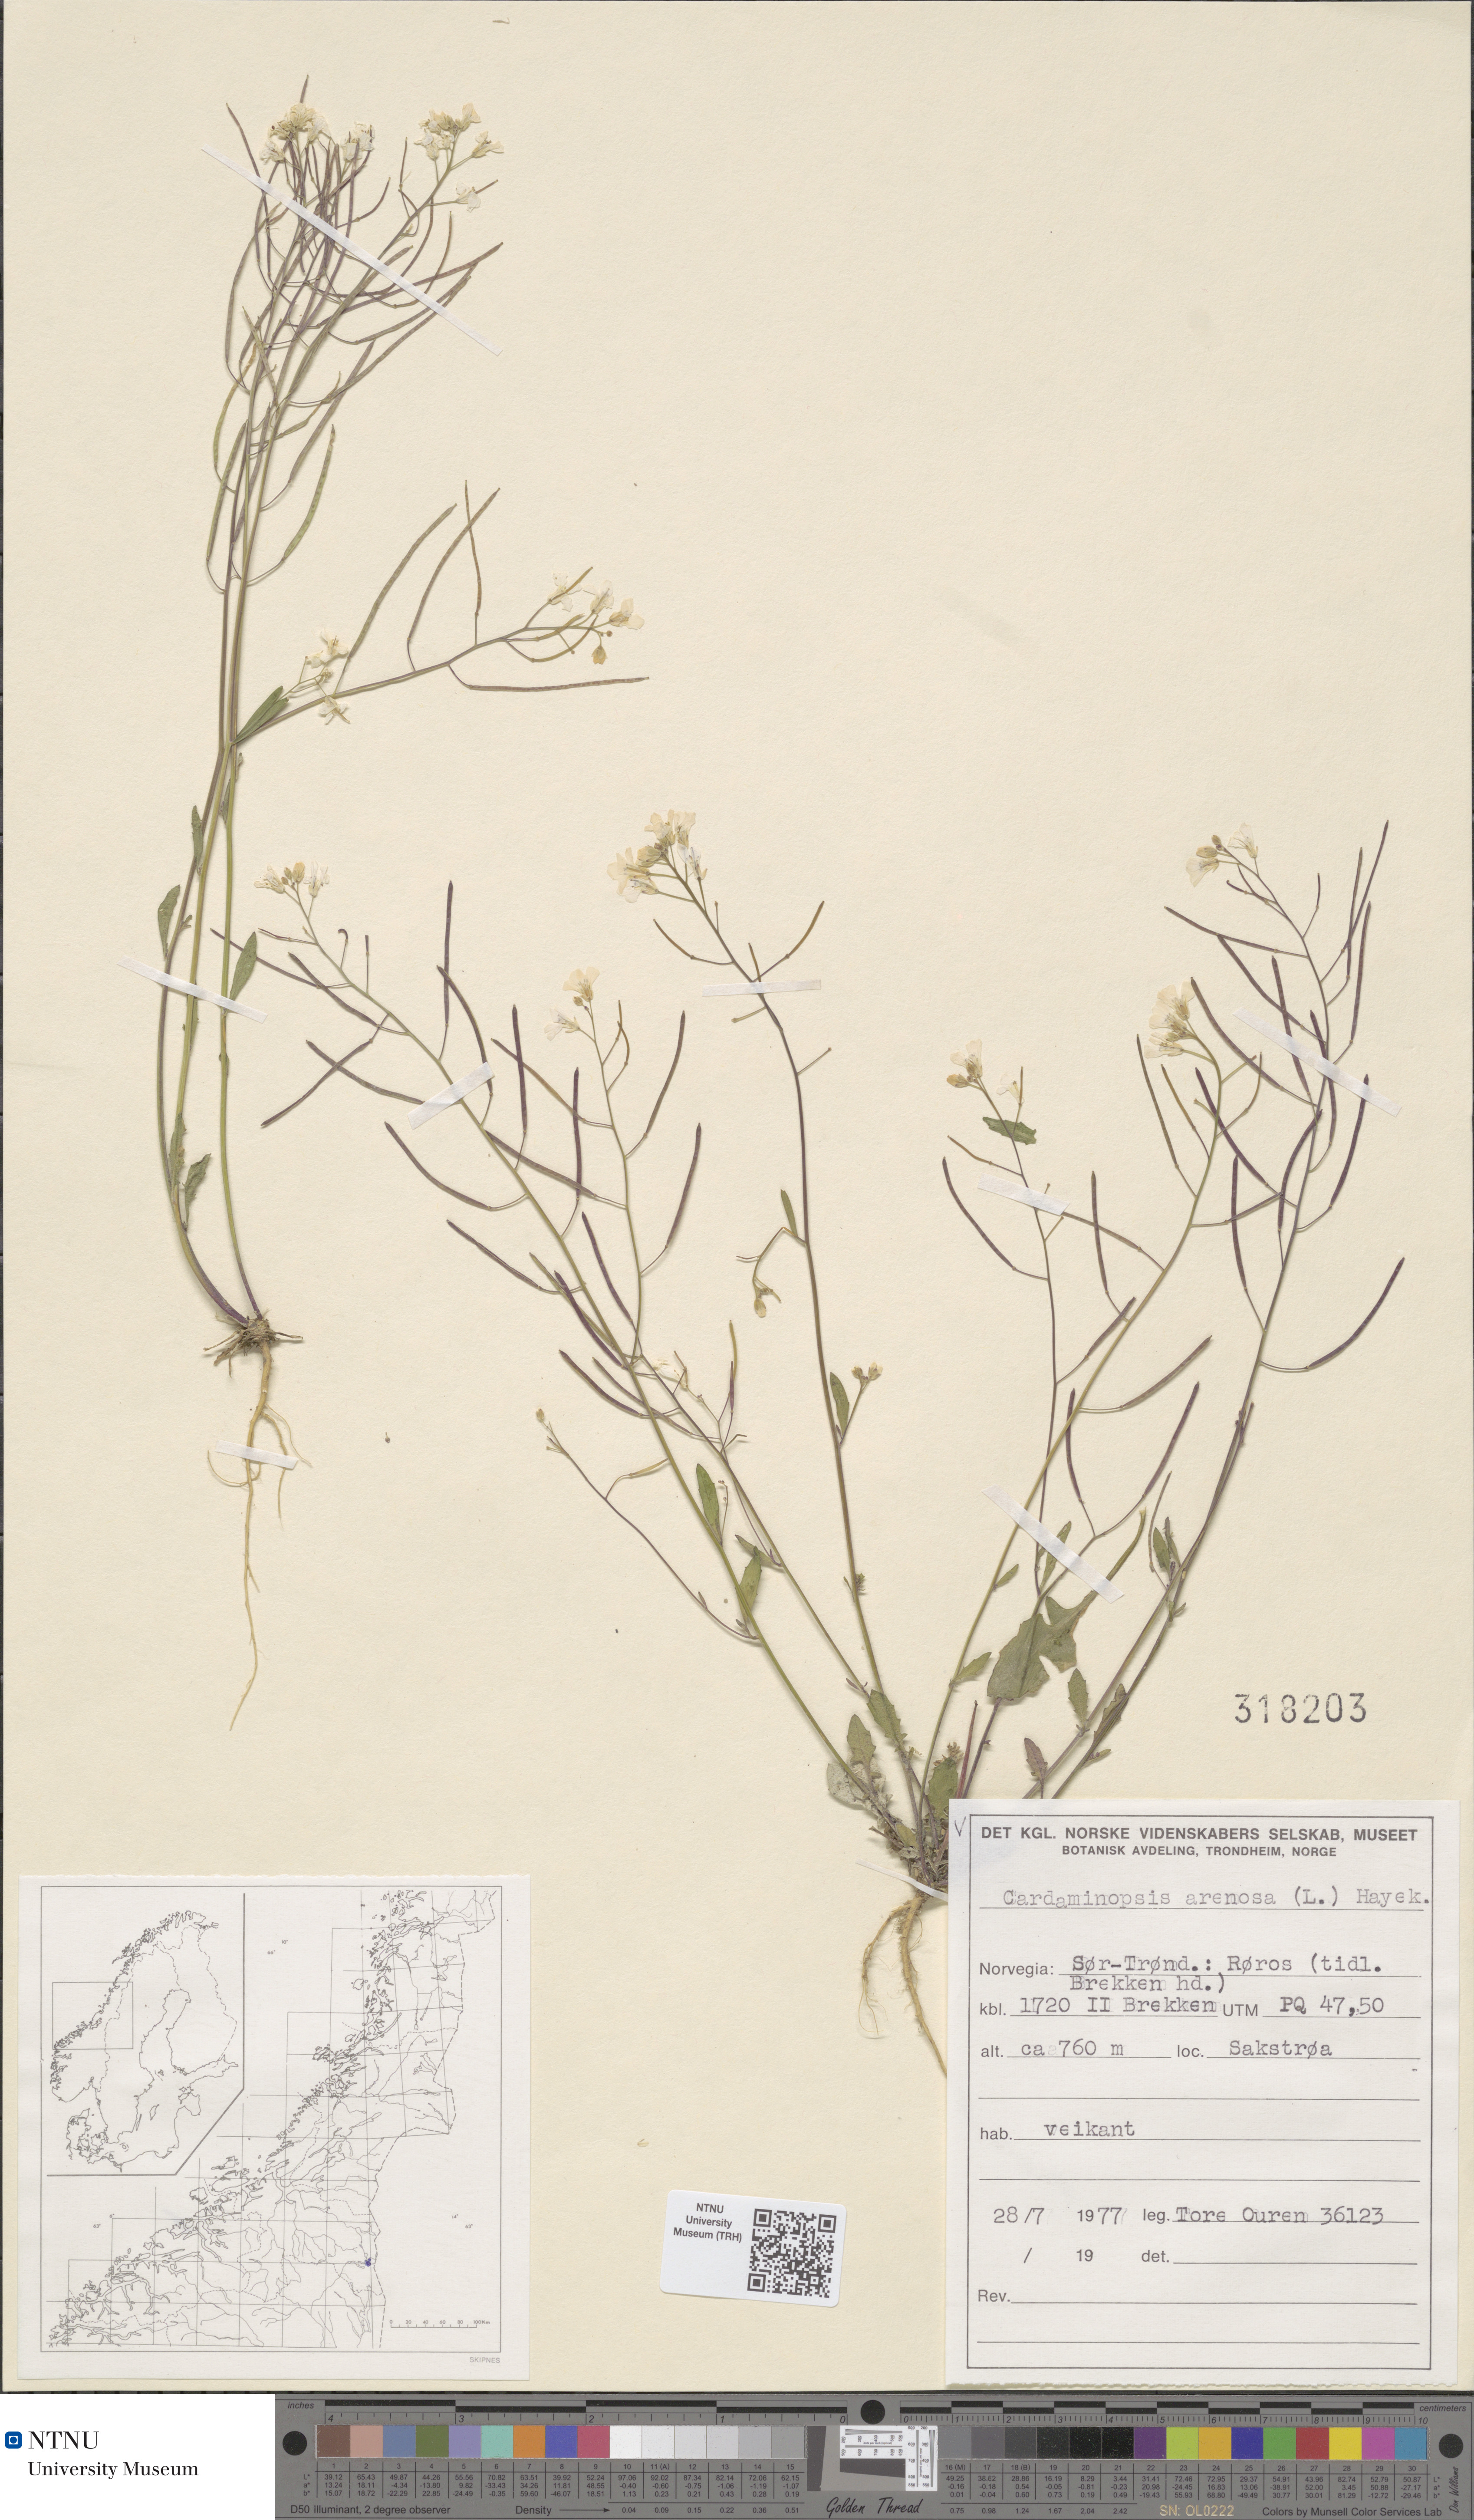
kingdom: Plantae
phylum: Tracheophyta
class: Magnoliopsida
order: Brassicales
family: Brassicaceae
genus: Arabidopsis
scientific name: Arabidopsis arenosa
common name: Sand rock-cress
